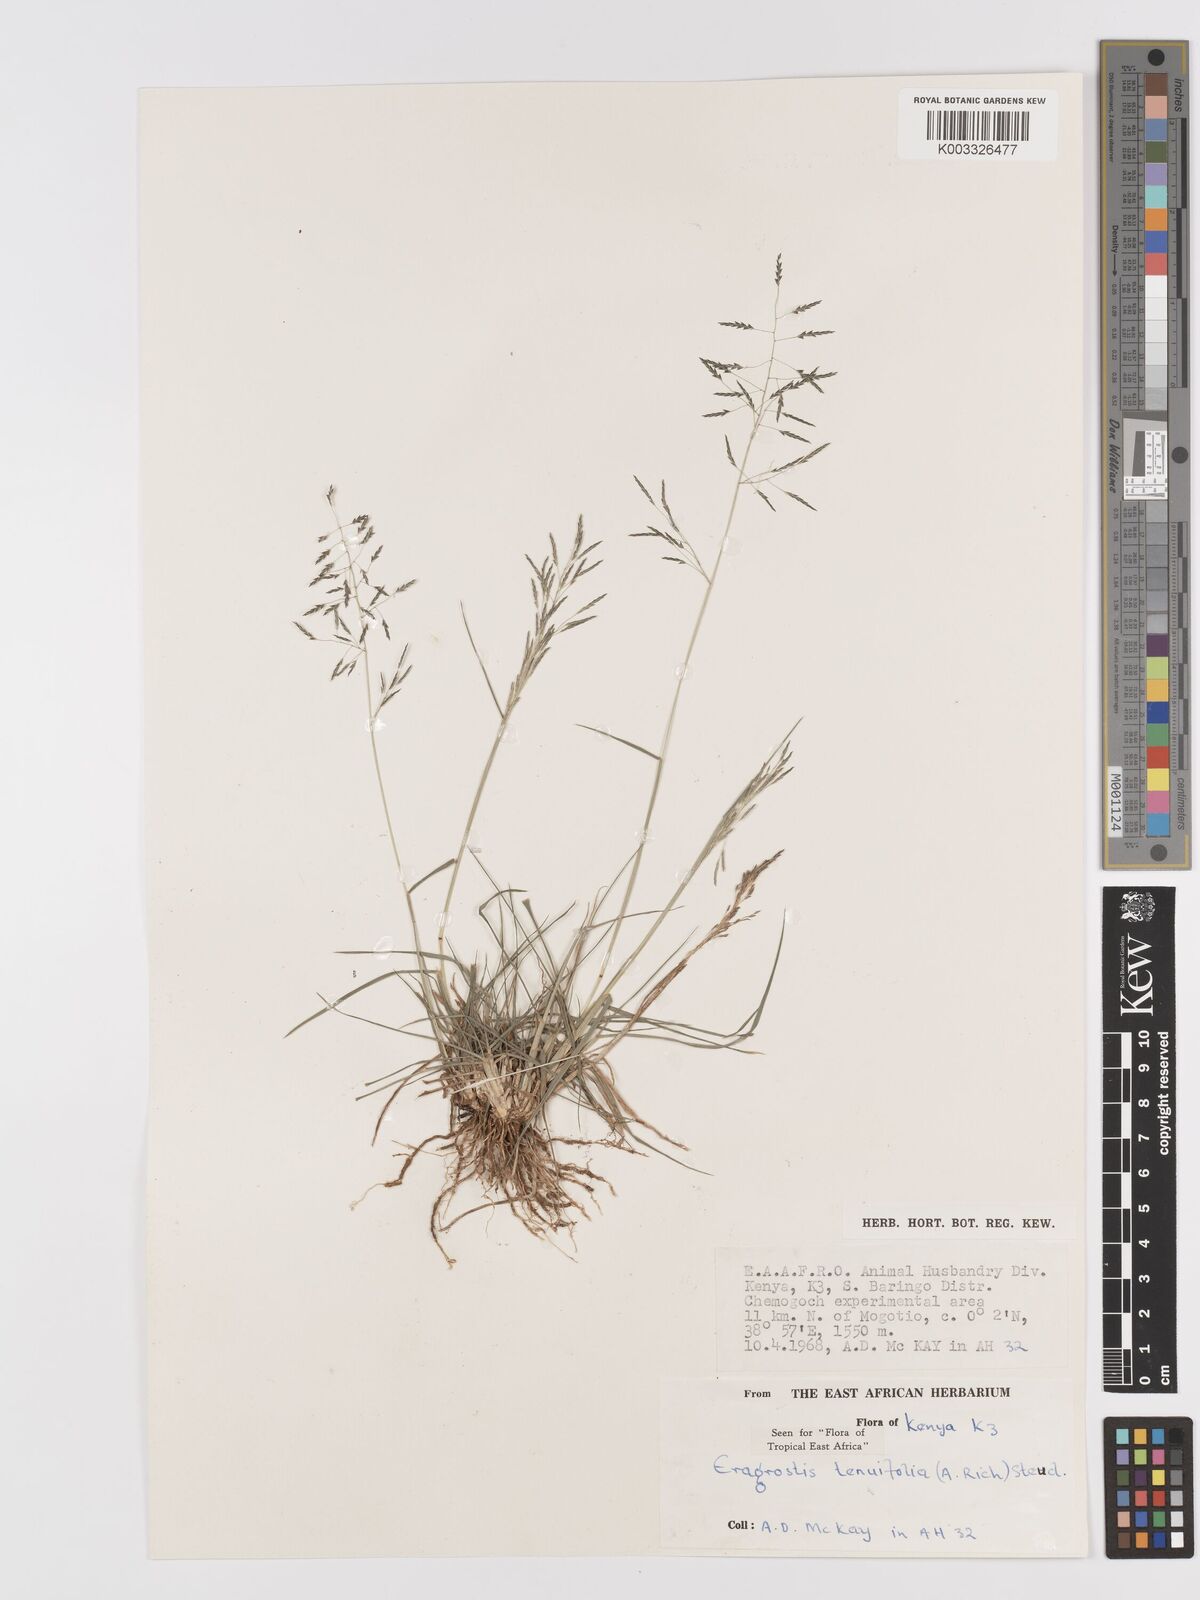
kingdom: Plantae
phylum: Tracheophyta
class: Liliopsida
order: Poales
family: Poaceae
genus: Eragrostis
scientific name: Eragrostis tenuifolia
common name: Elastic grass
